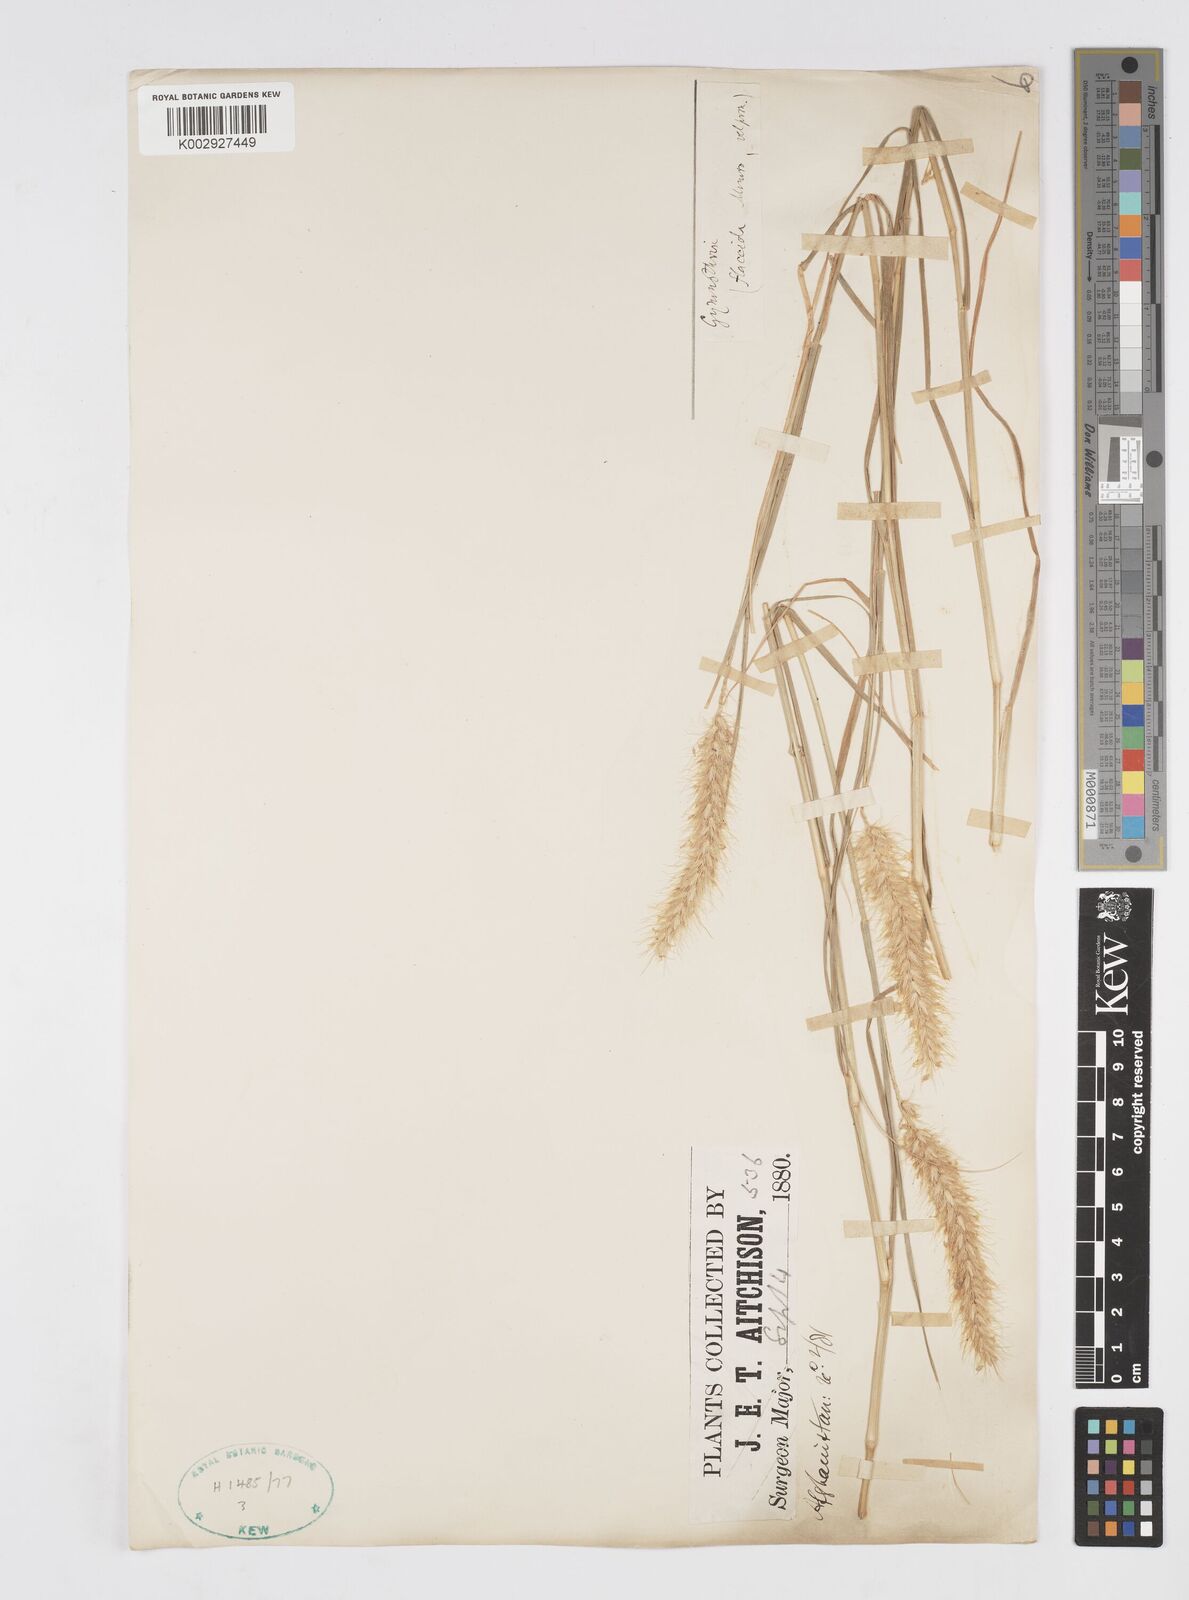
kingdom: Plantae
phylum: Tracheophyta
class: Liliopsida
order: Poales
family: Poaceae
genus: Cenchrus
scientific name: Cenchrus ciliaris
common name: Buffelgrass
